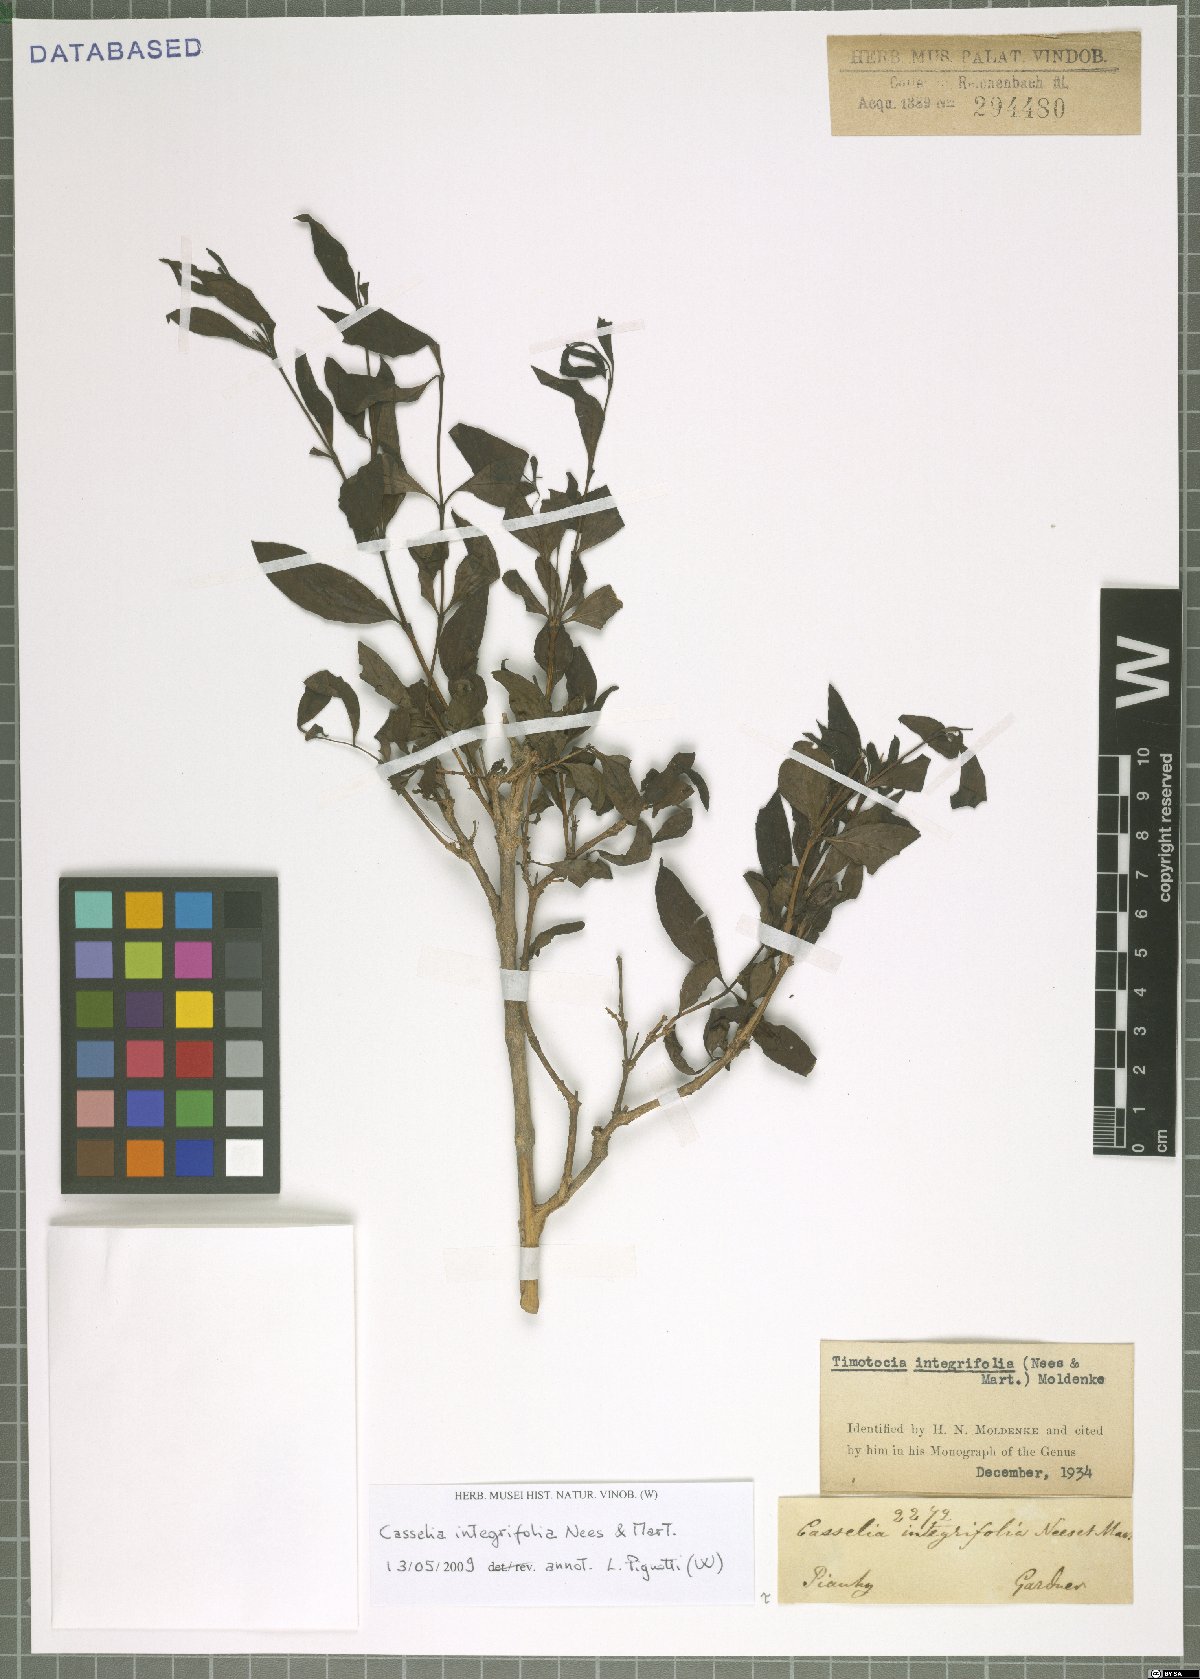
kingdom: Plantae
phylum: Tracheophyta
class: Magnoliopsida
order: Lamiales
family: Verbenaceae
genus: Casselia
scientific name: Casselia integrifolia
